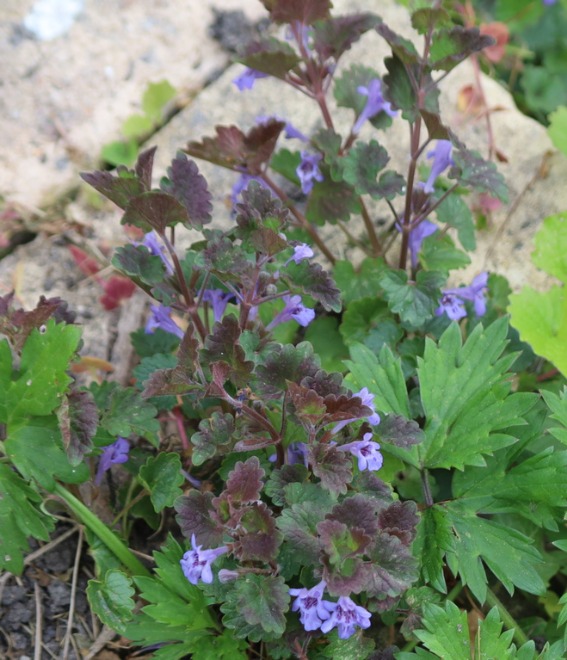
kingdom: Plantae
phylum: Tracheophyta
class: Magnoliopsida
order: Lamiales
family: Lamiaceae
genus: Glechoma
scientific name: Glechoma hederacea
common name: Korsknap
